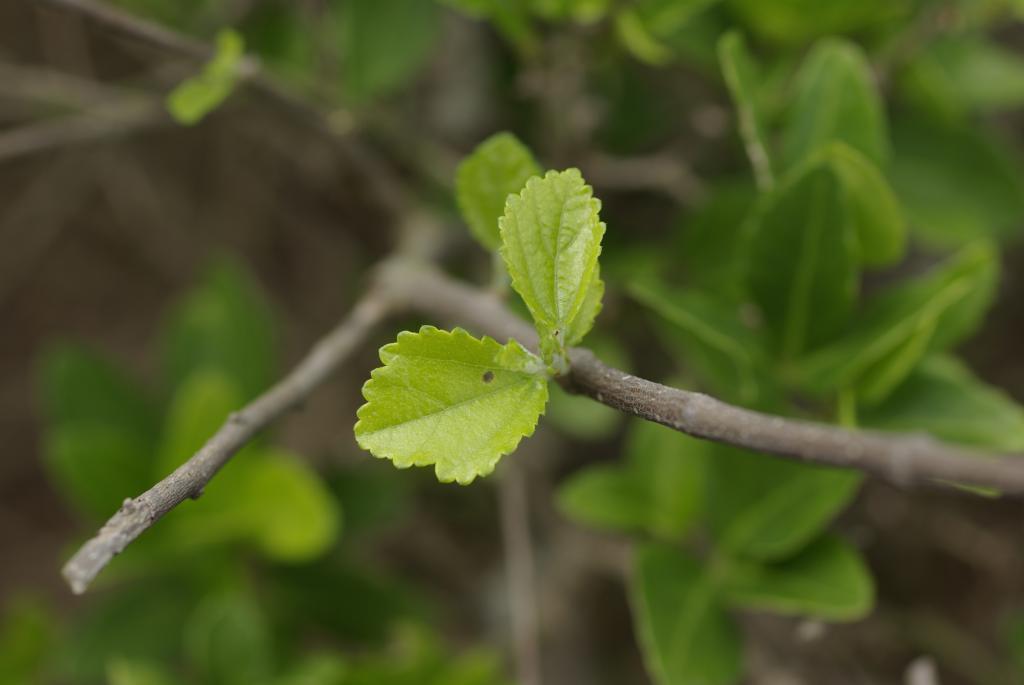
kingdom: Plantae
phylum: Tracheophyta
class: Magnoliopsida
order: Malvales
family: Malvaceae
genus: Grewia
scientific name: Grewia rhombifolia
